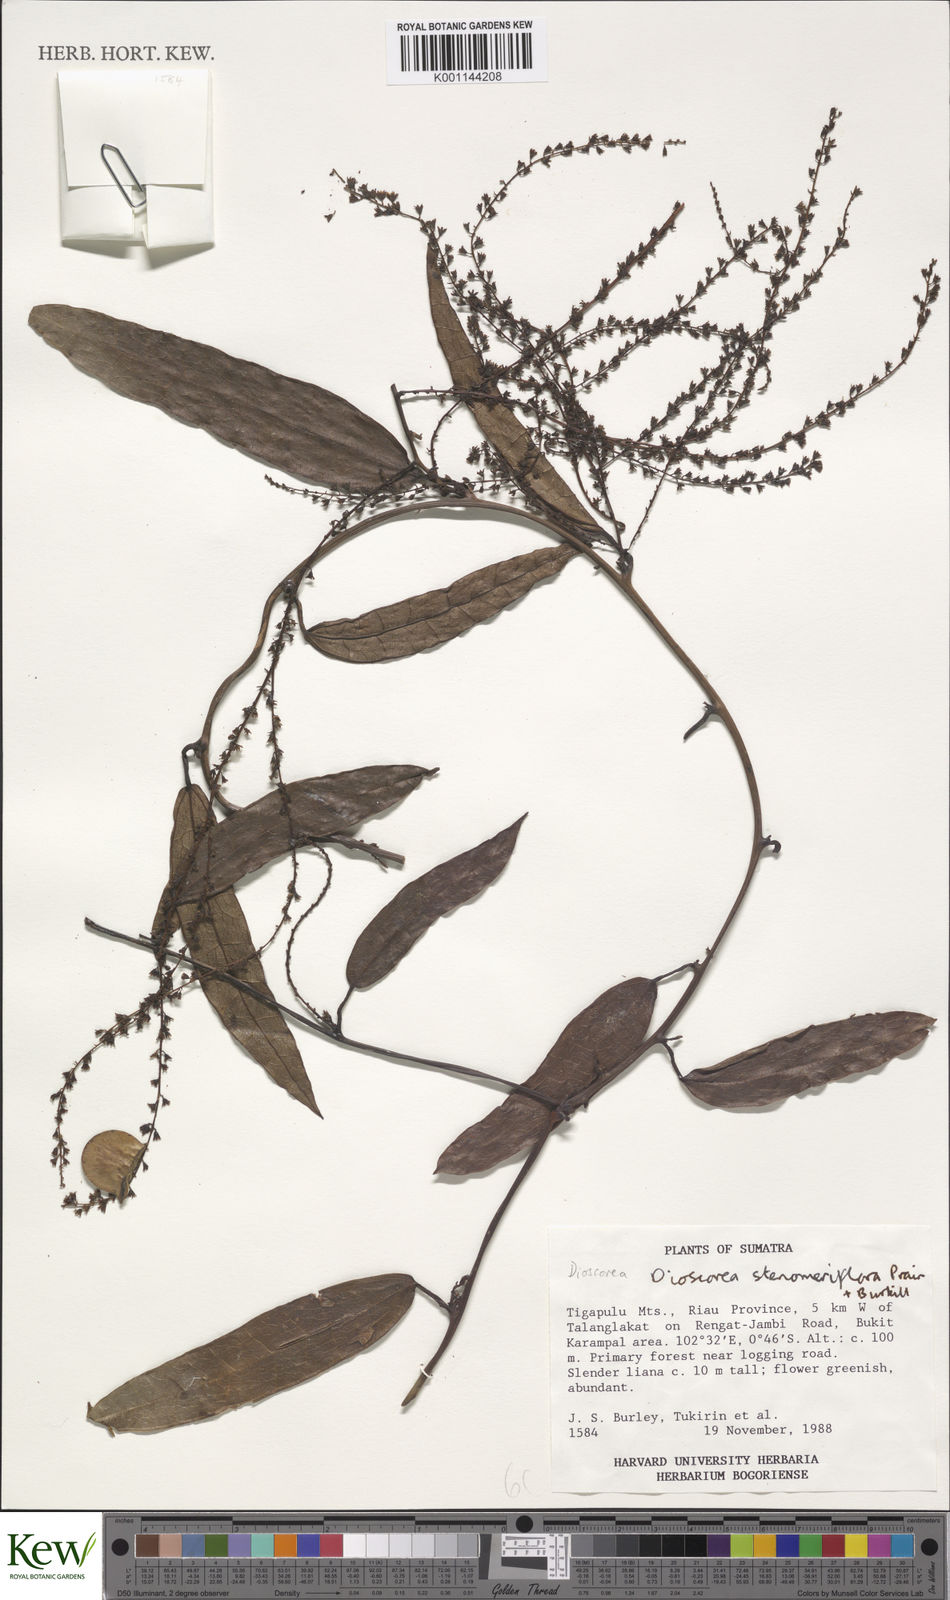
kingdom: Plantae
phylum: Tracheophyta
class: Liliopsida
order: Dioscoreales
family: Dioscoreaceae
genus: Dioscorea
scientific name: Dioscorea stenomeriflora
